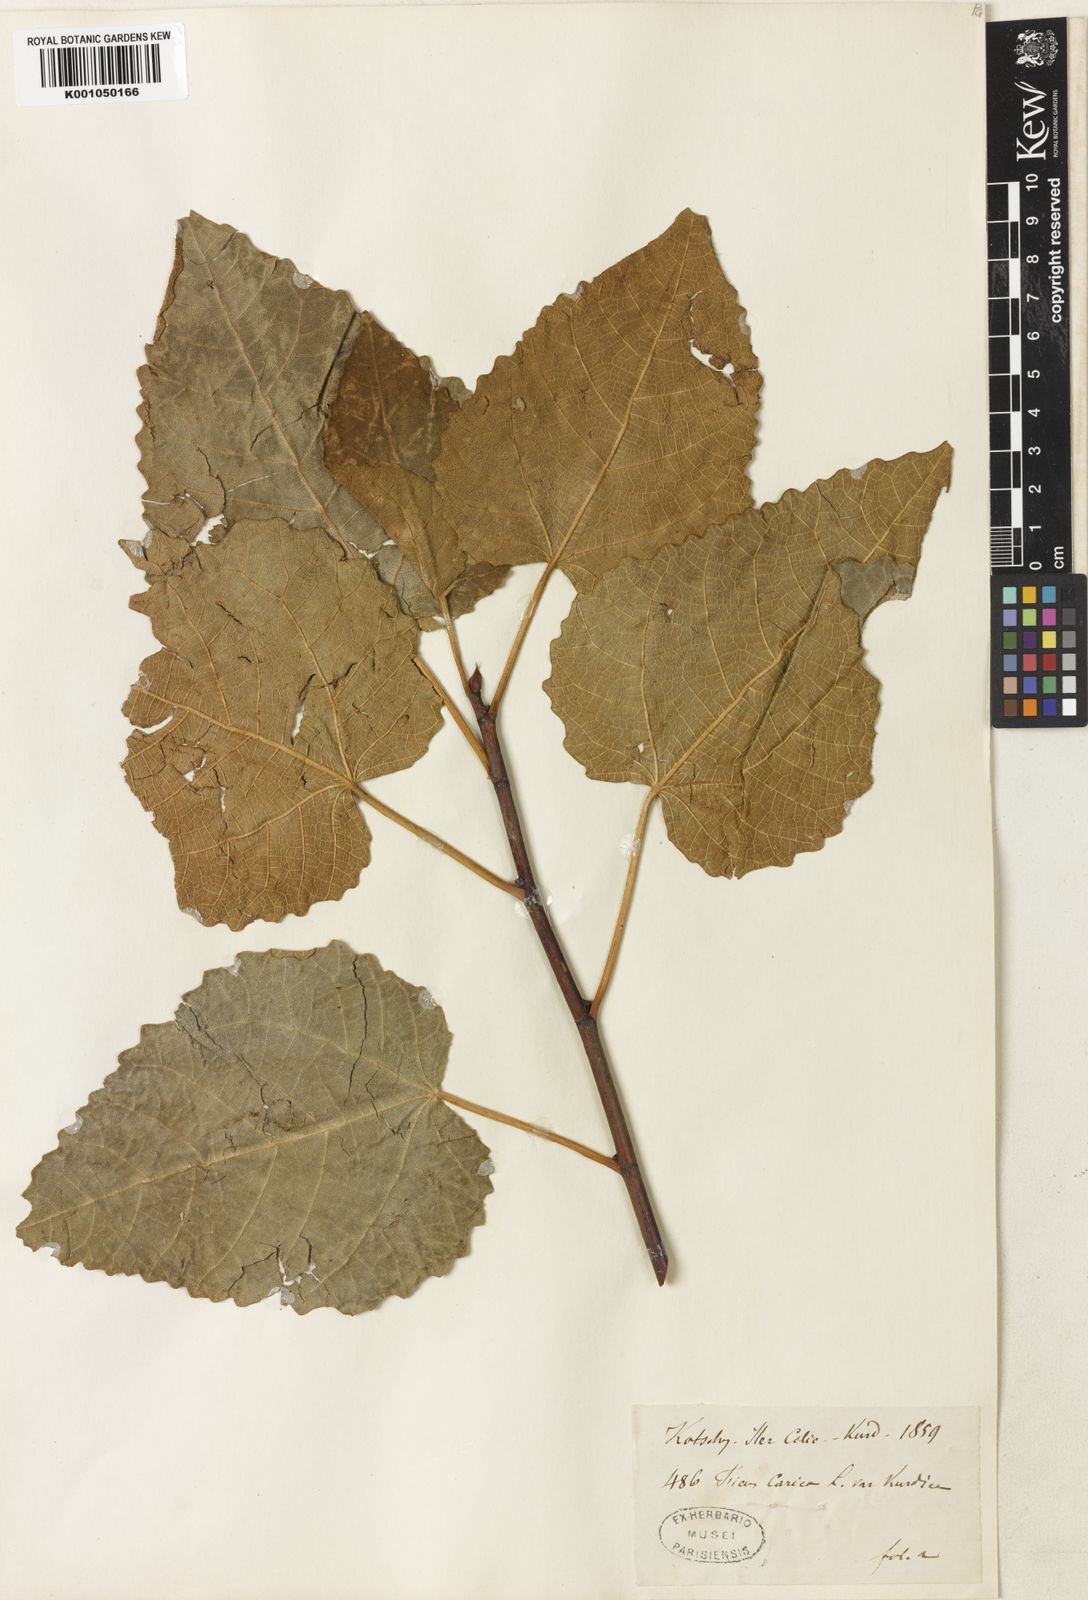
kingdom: Plantae
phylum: Tracheophyta
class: Magnoliopsida
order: Rosales
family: Moraceae
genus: Ficus
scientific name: Ficus carica
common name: Fig
